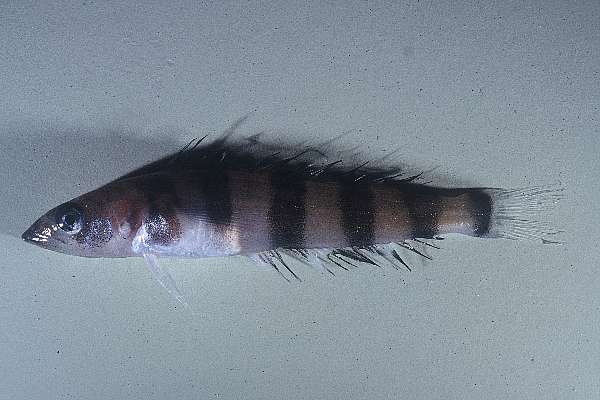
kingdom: Animalia
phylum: Chordata
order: Perciformes
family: Nototheniidae
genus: Dissostichus
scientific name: Dissostichus mawsoni
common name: Antarctic toothfish
